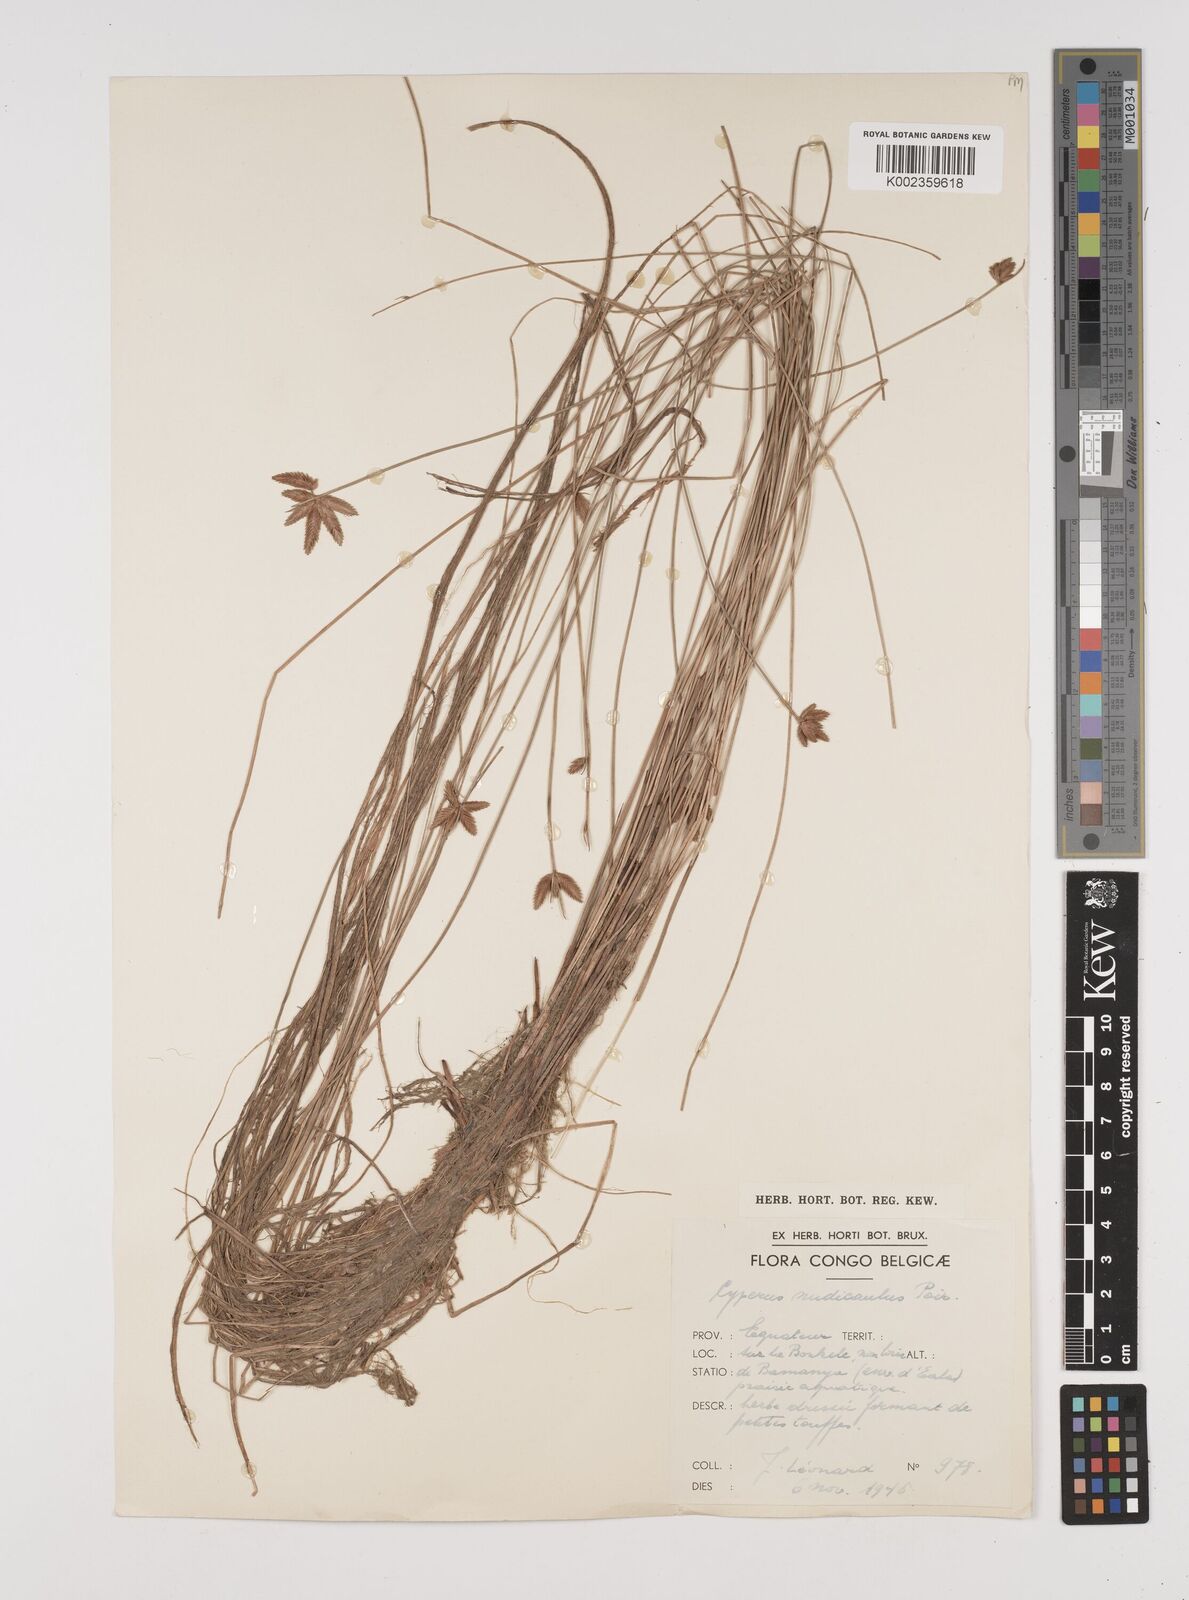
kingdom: Plantae
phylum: Tracheophyta
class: Liliopsida
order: Poales
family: Cyperaceae
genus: Cyperus
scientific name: Cyperus pectinatus
